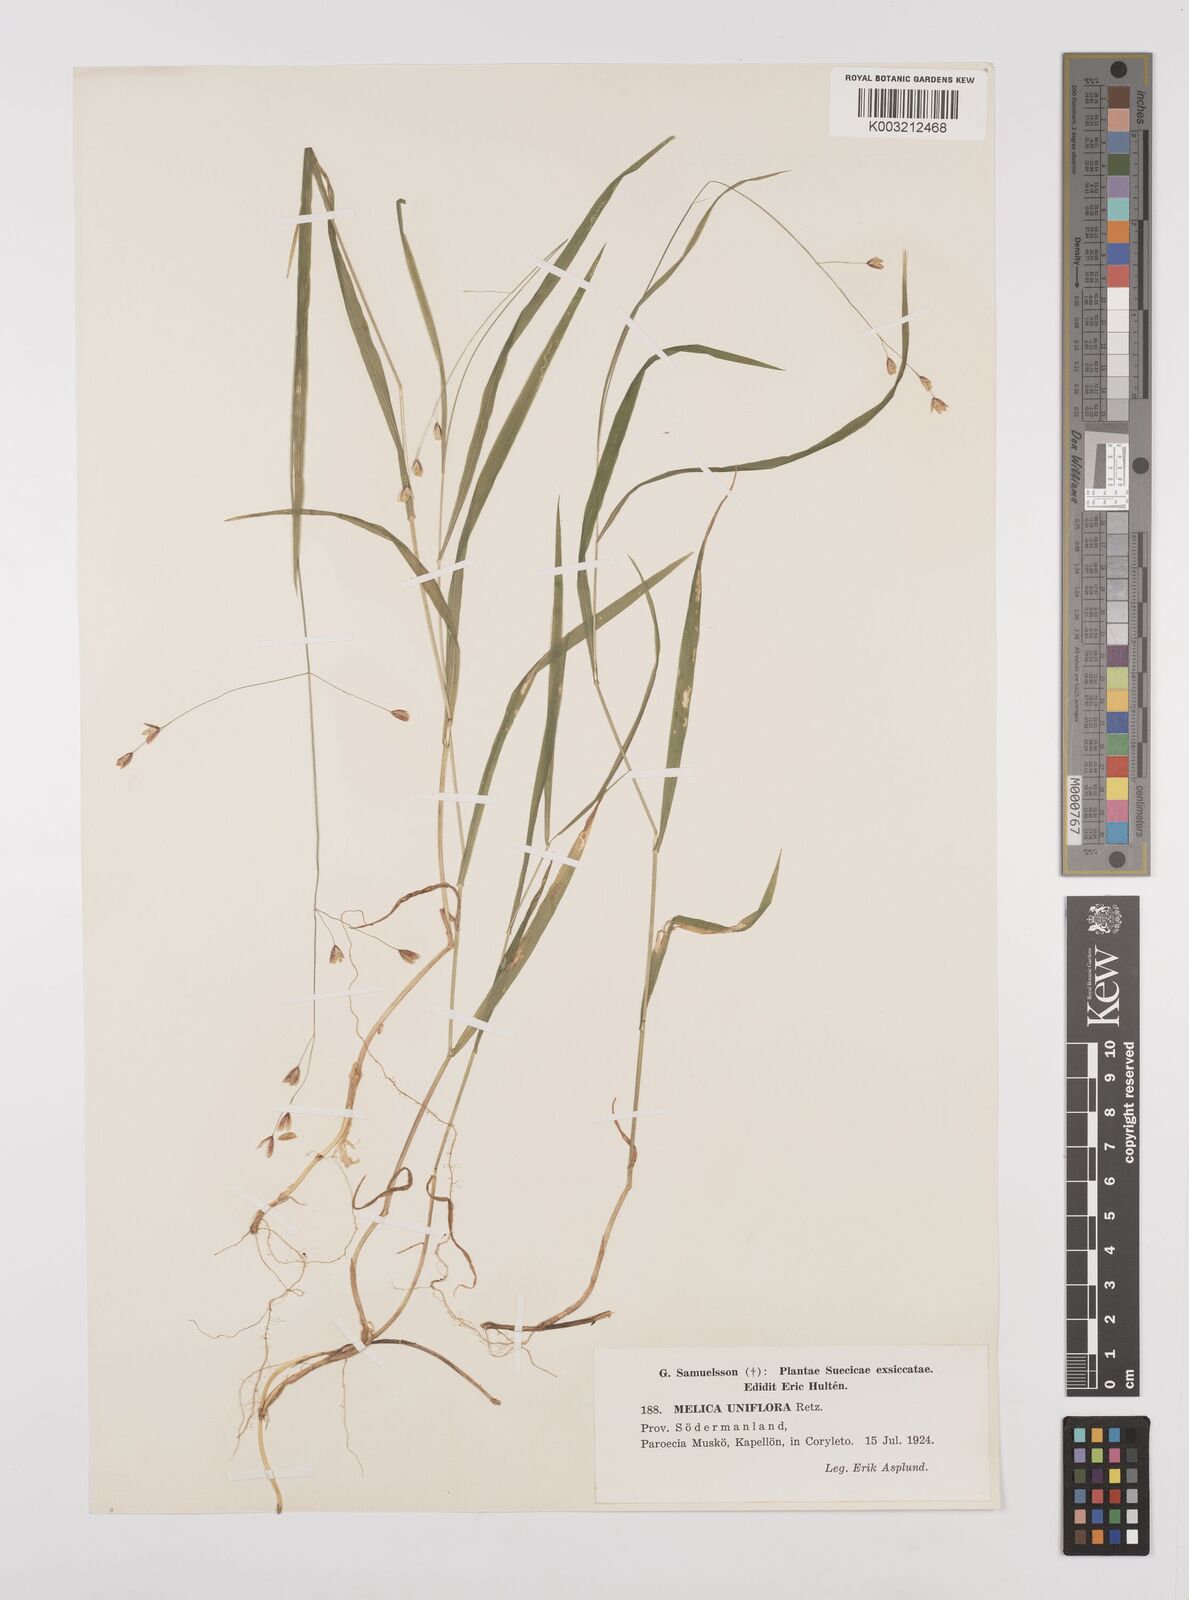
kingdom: Plantae
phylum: Tracheophyta
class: Liliopsida
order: Poales
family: Poaceae
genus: Melica
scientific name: Melica uniflora
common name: Wood melick
